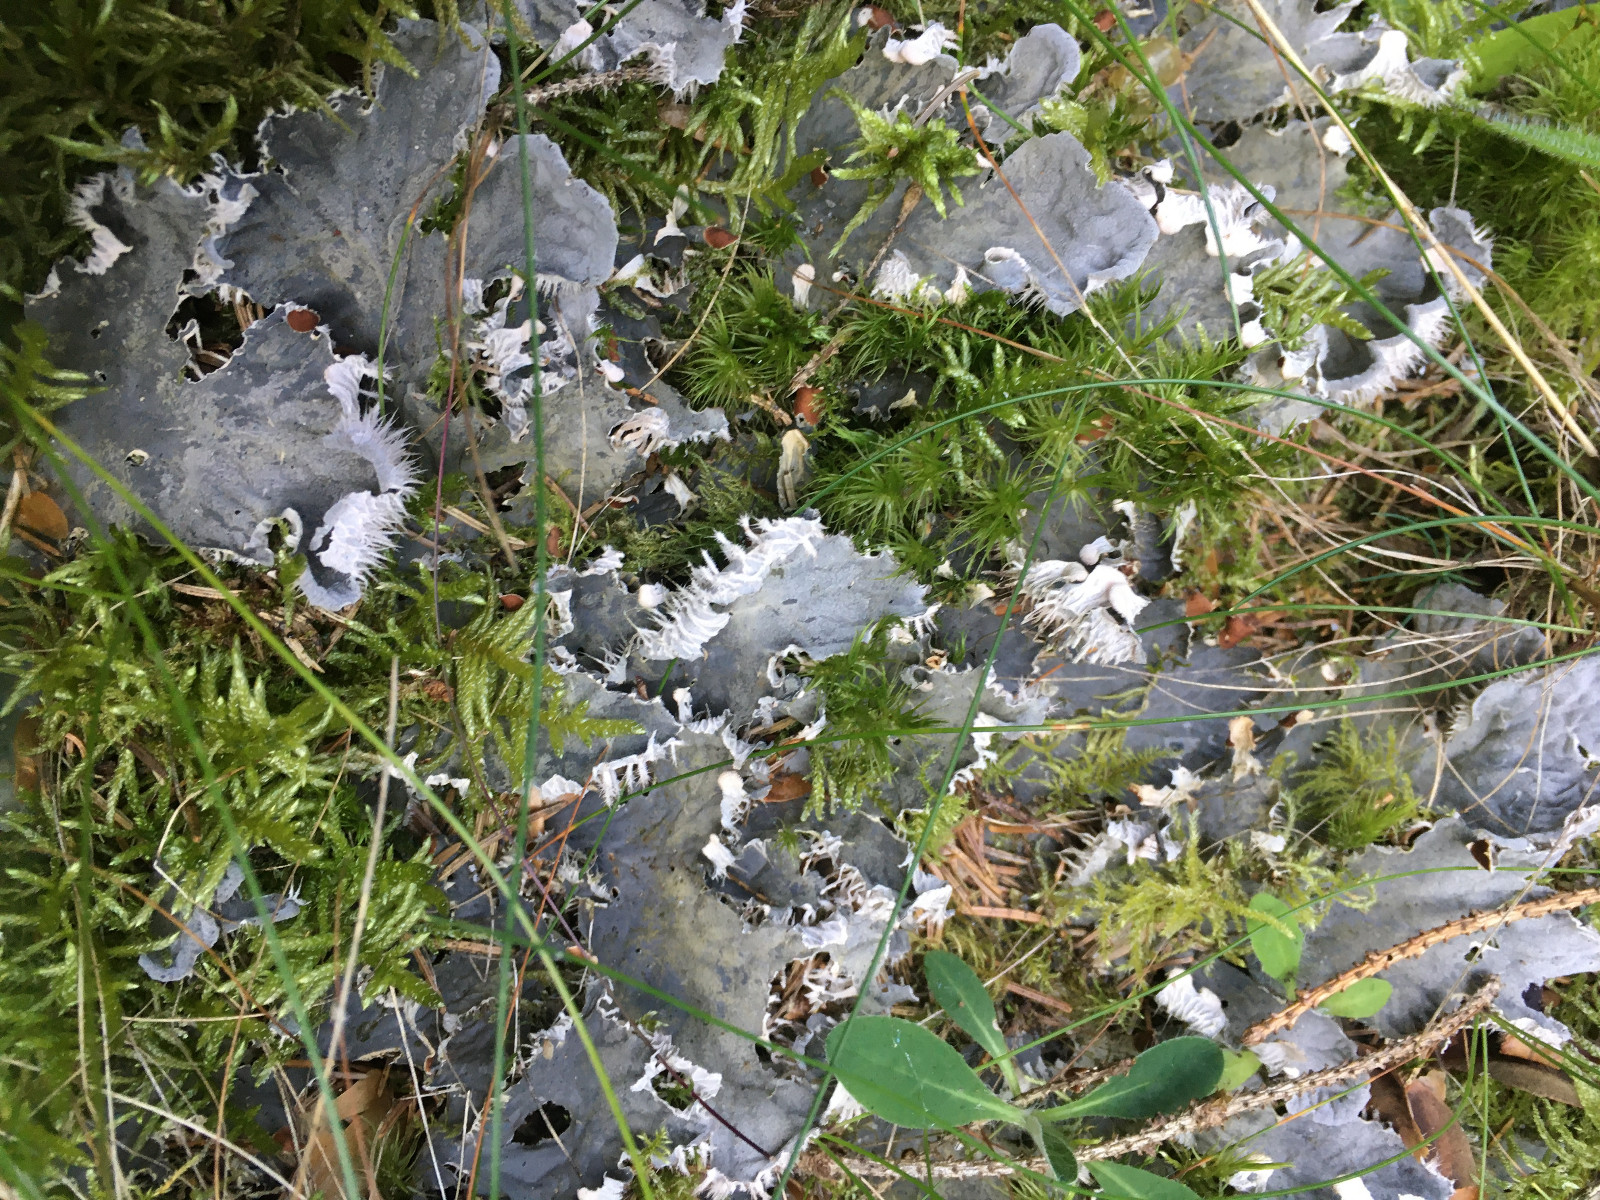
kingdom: Fungi
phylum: Ascomycota
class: Lecanoromycetes
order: Peltigerales
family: Peltigeraceae
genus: Peltigera
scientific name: Peltigera membranacea
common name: tynd skjoldlav
